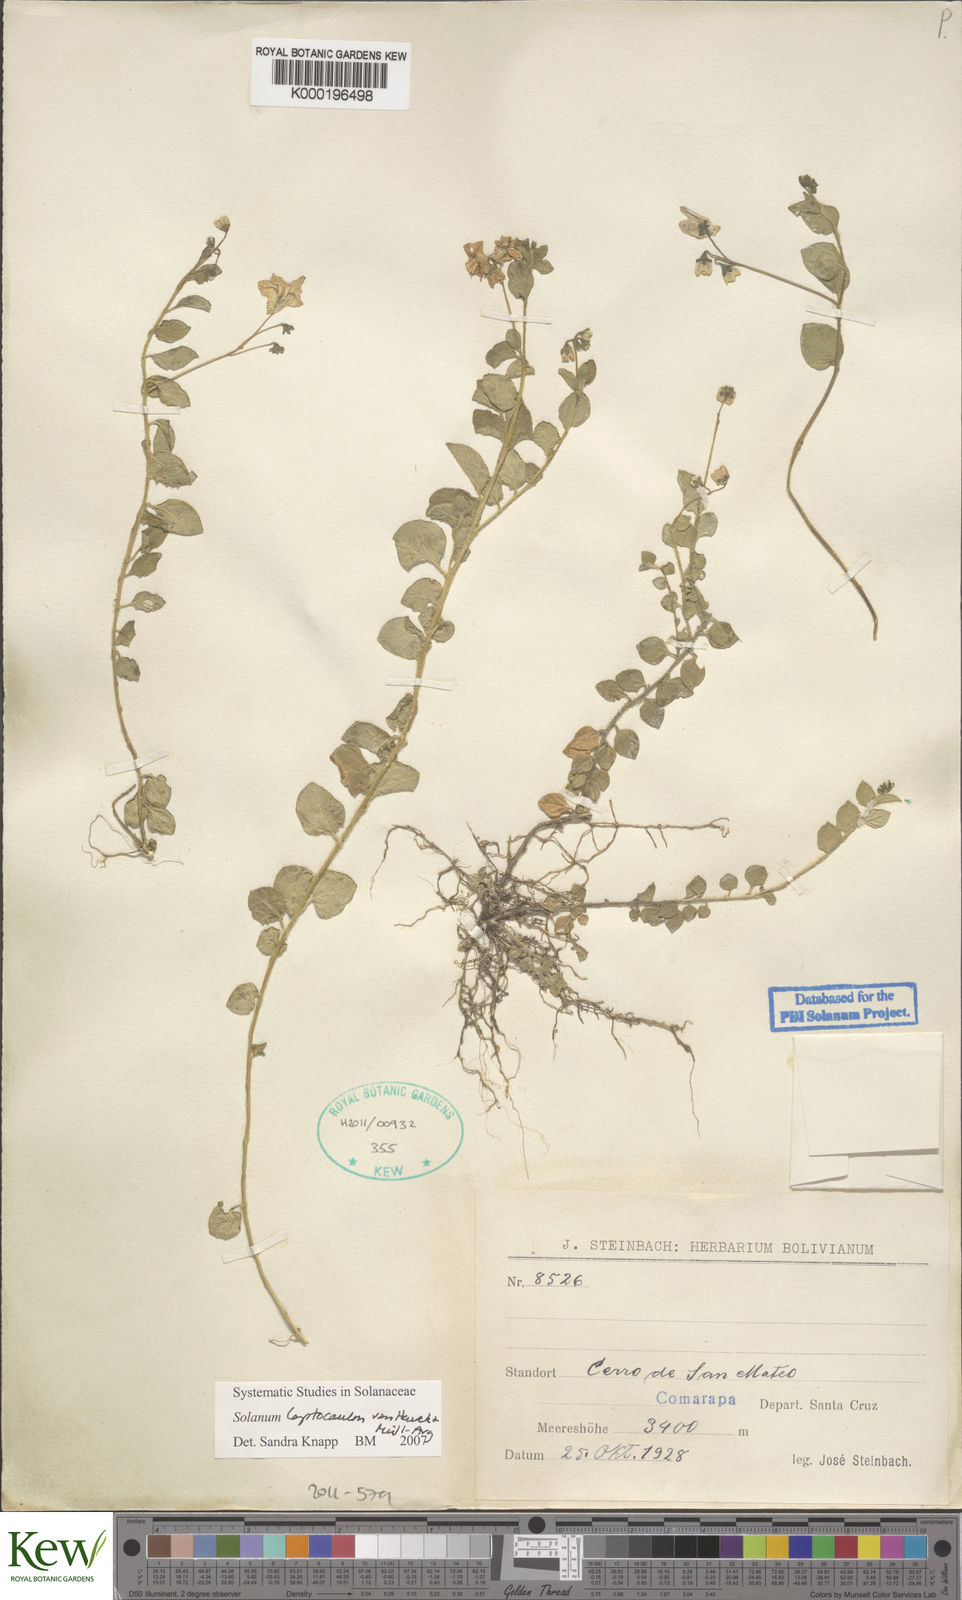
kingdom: Plantae
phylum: Tracheophyta
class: Magnoliopsida
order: Solanales
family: Solanaceae
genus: Solanum
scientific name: Solanum
